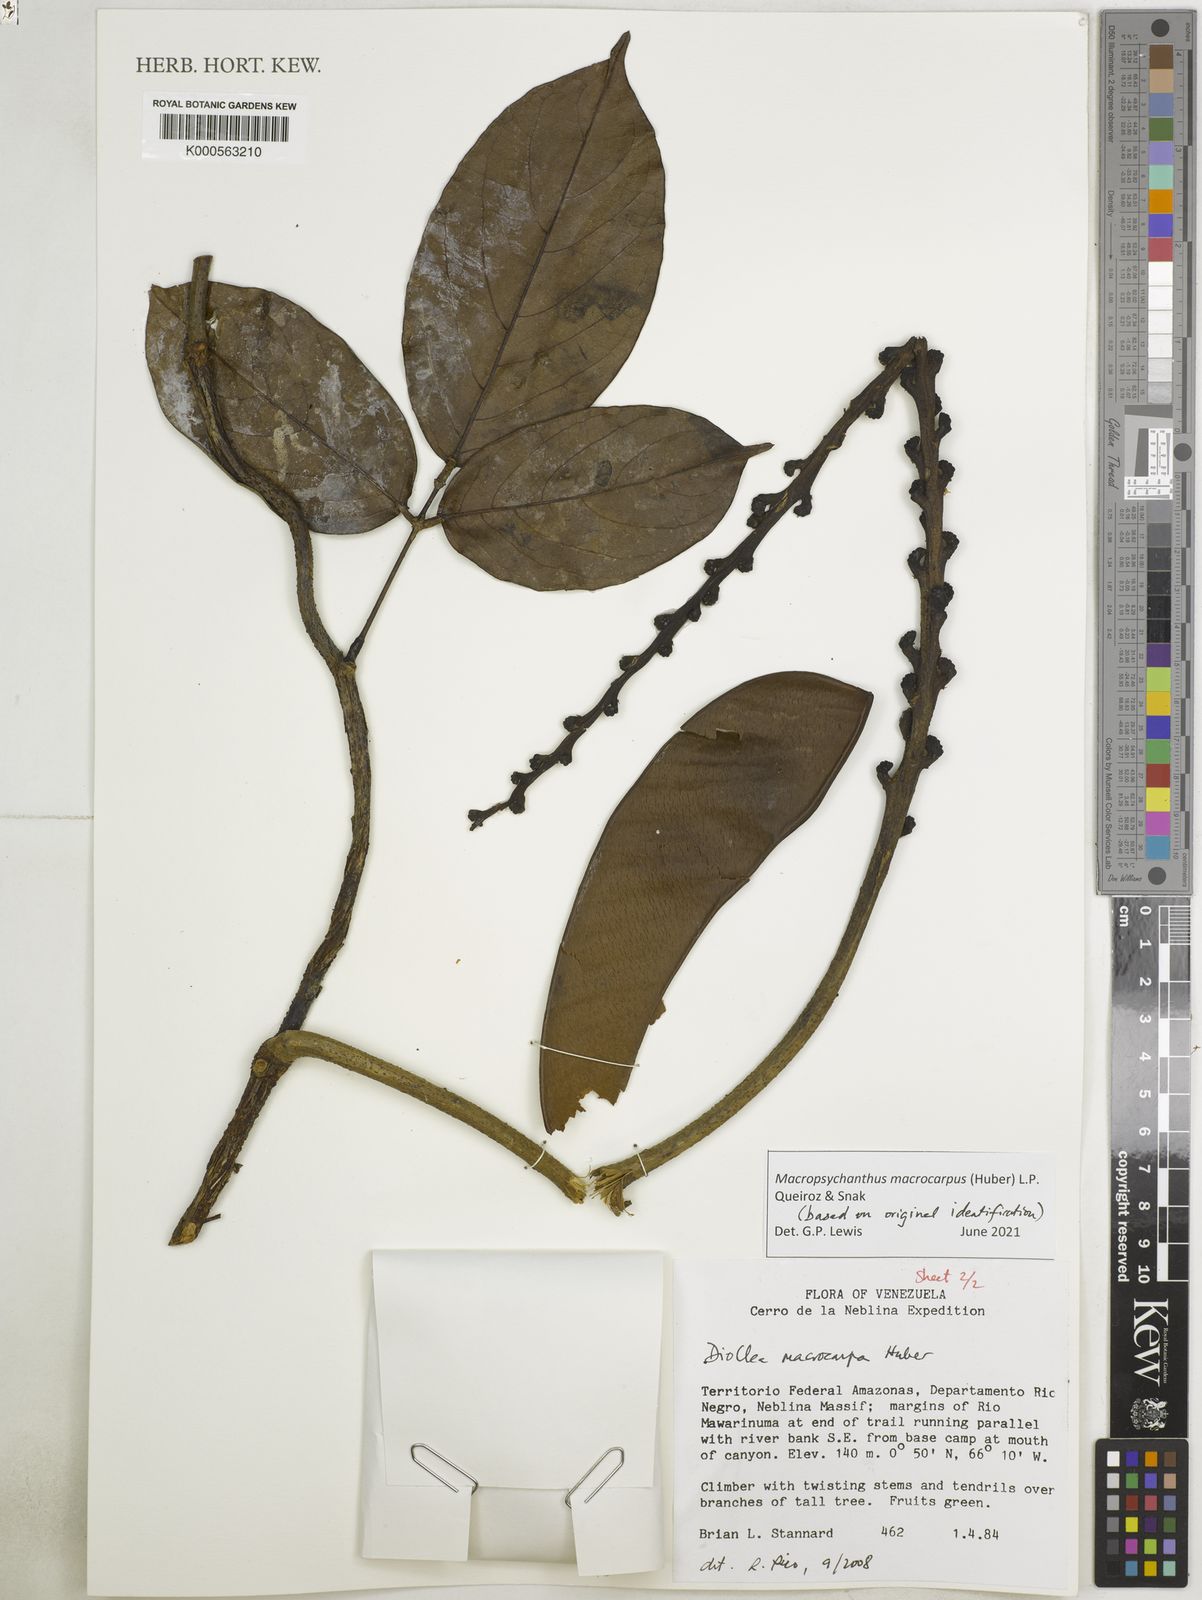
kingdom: Plantae
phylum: Tracheophyta
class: Magnoliopsida
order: Fabales
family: Fabaceae
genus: Macropsychanthus
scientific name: Macropsychanthus
